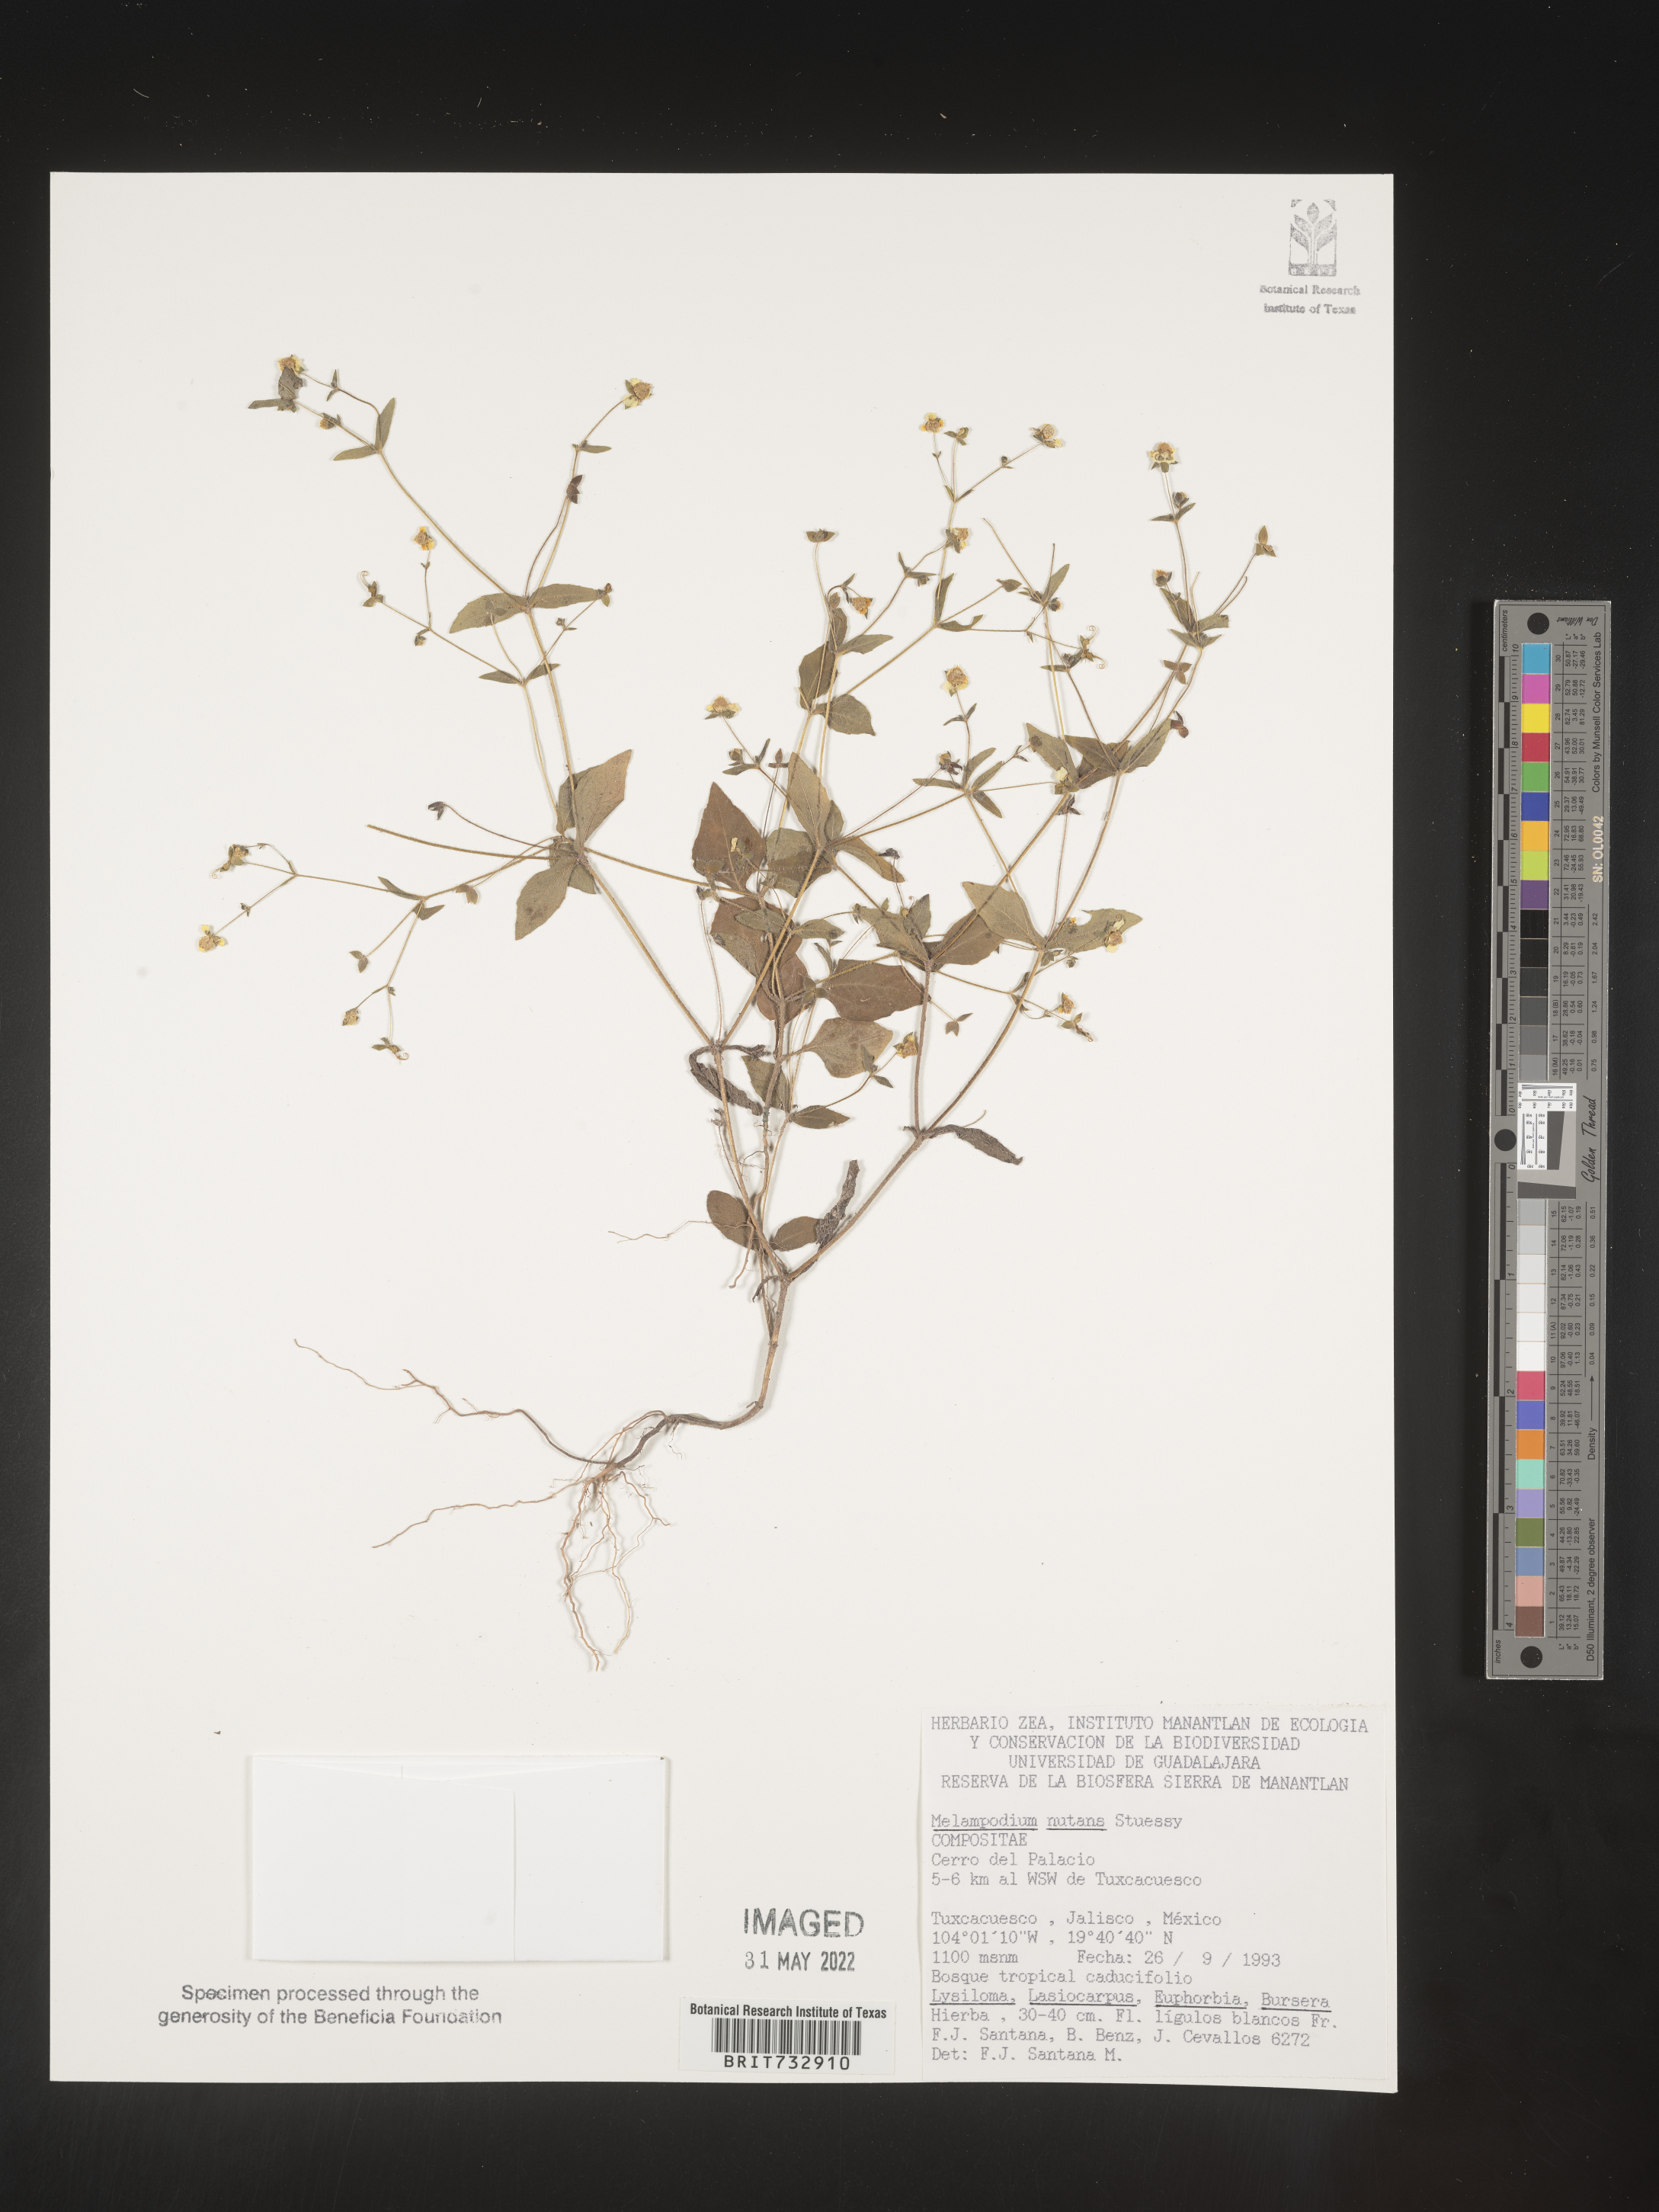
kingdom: Plantae
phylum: Tracheophyta
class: Magnoliopsida
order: Asterales
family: Asteraceae
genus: Melampodium
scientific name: Melampodium
